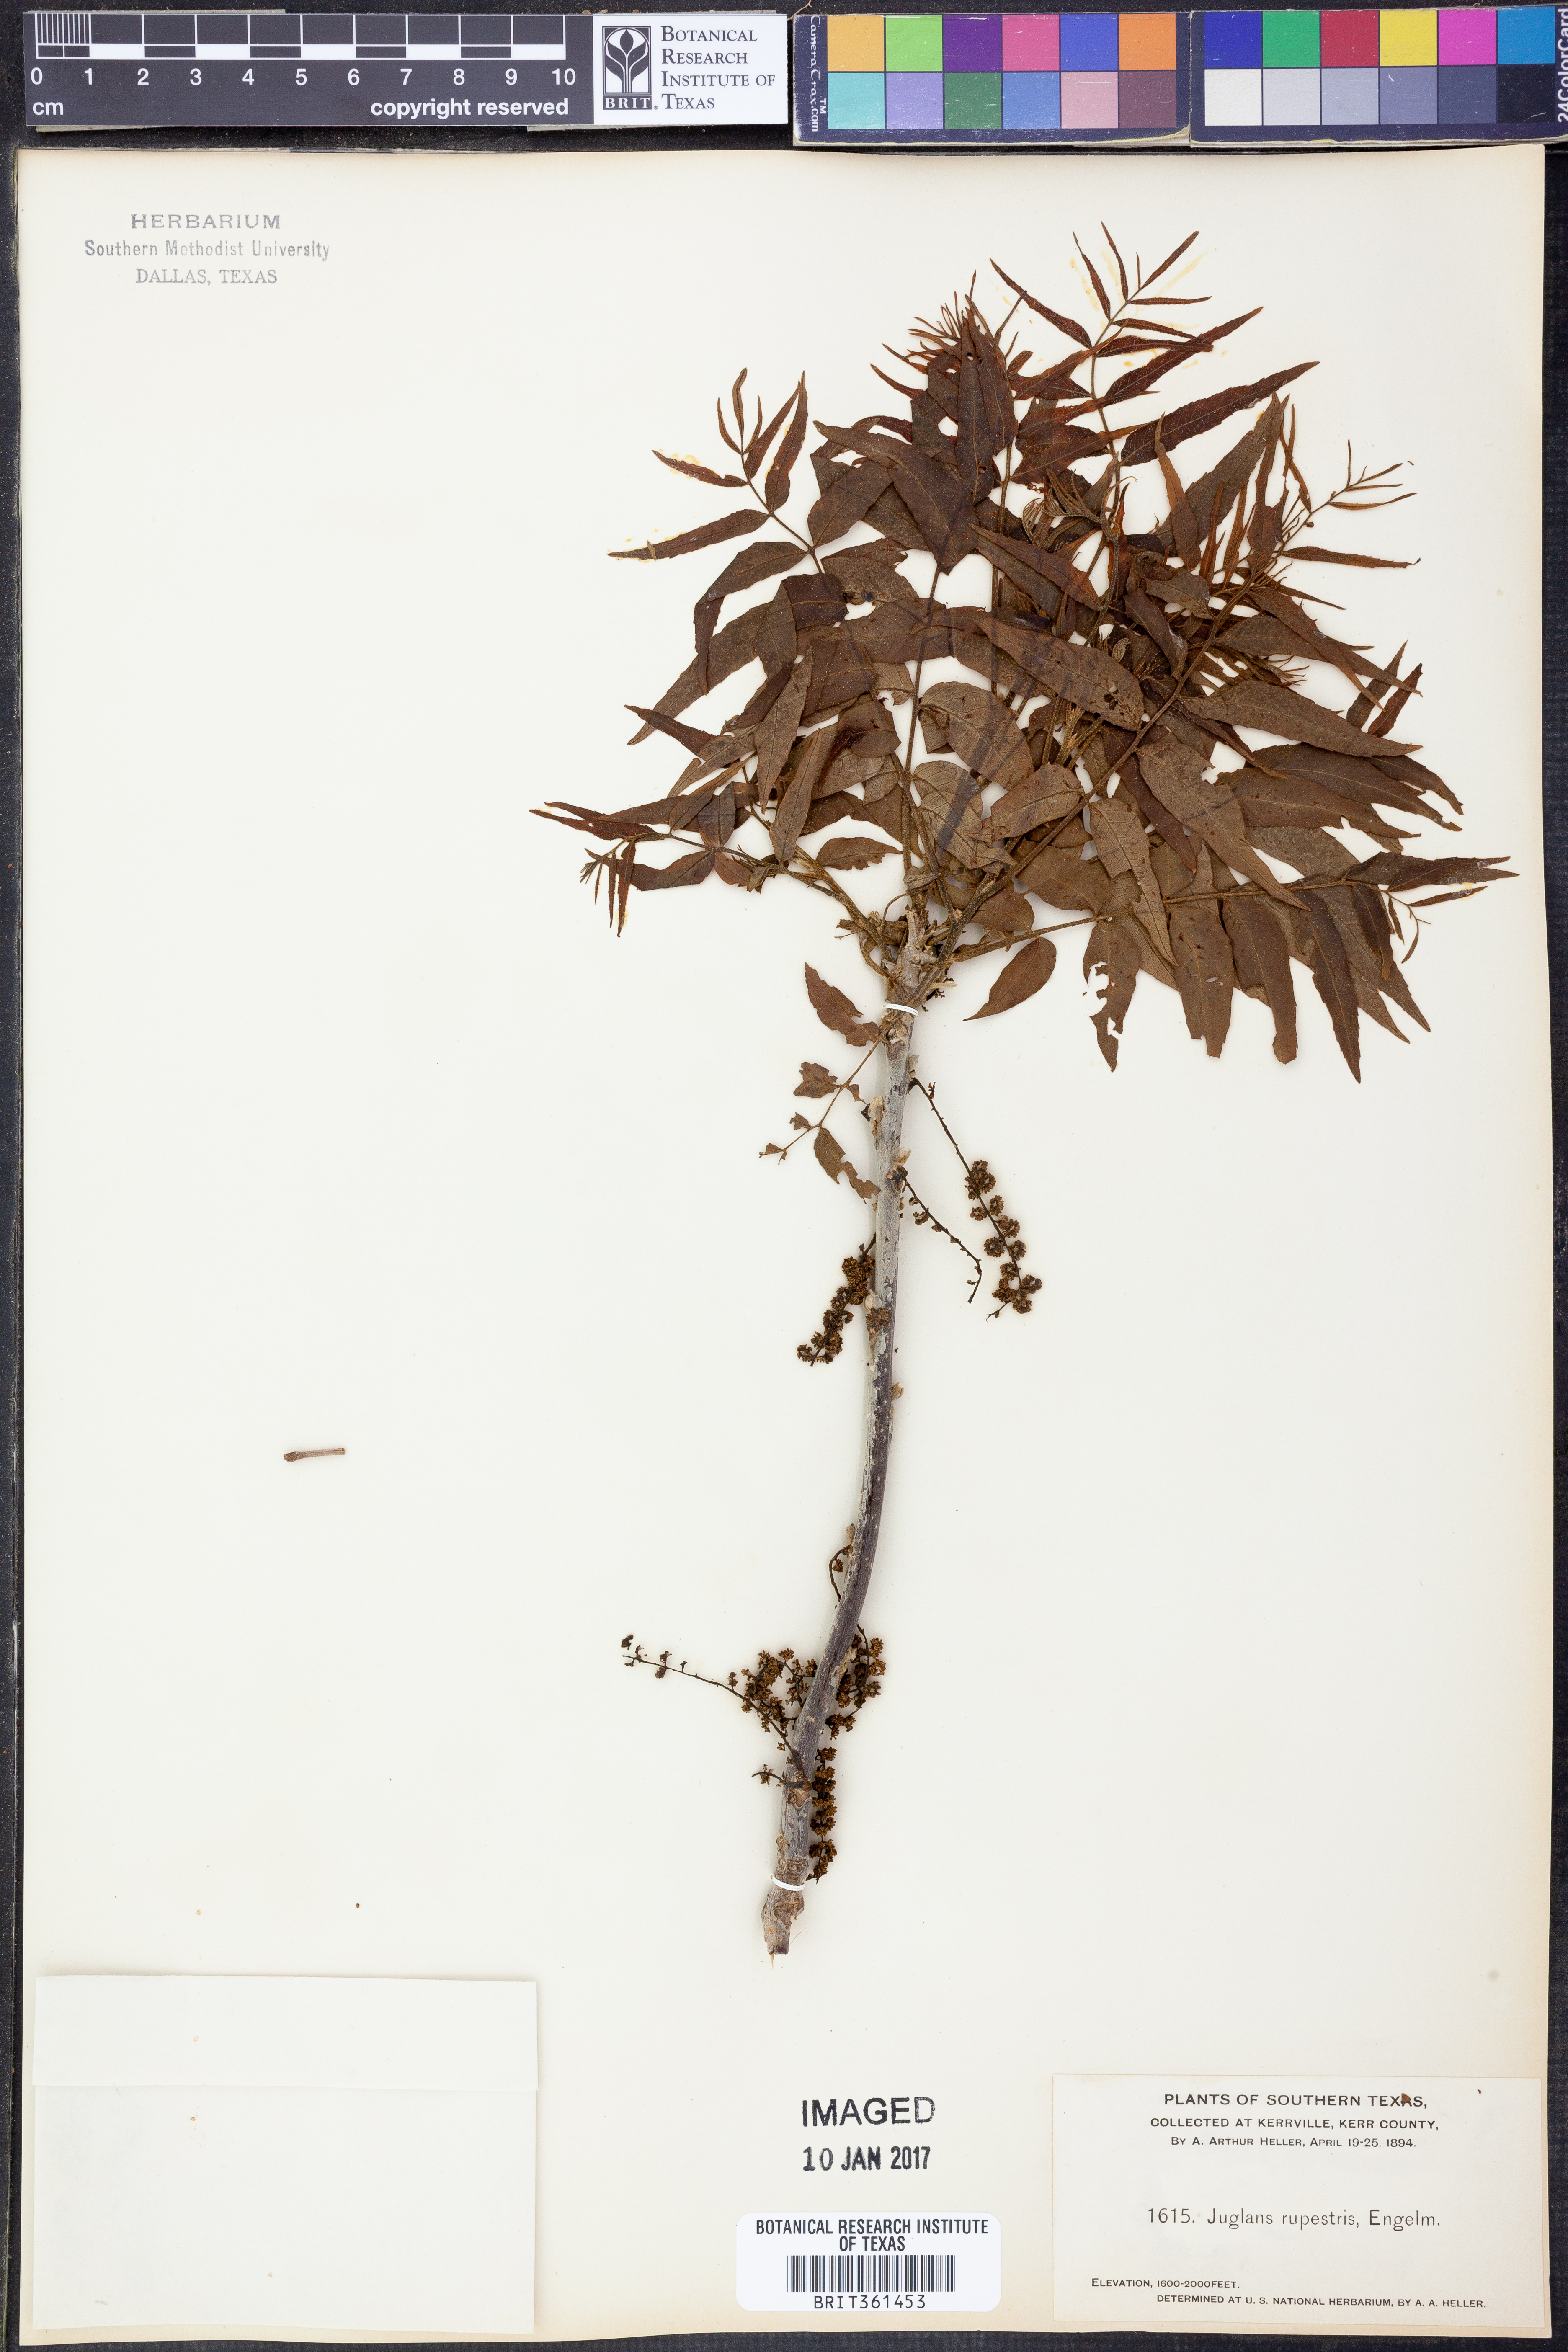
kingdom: Plantae
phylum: Tracheophyta
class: Magnoliopsida
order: Fagales
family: Juglandaceae
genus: Juglans
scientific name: Juglans microcarpa
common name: Texas walnut
